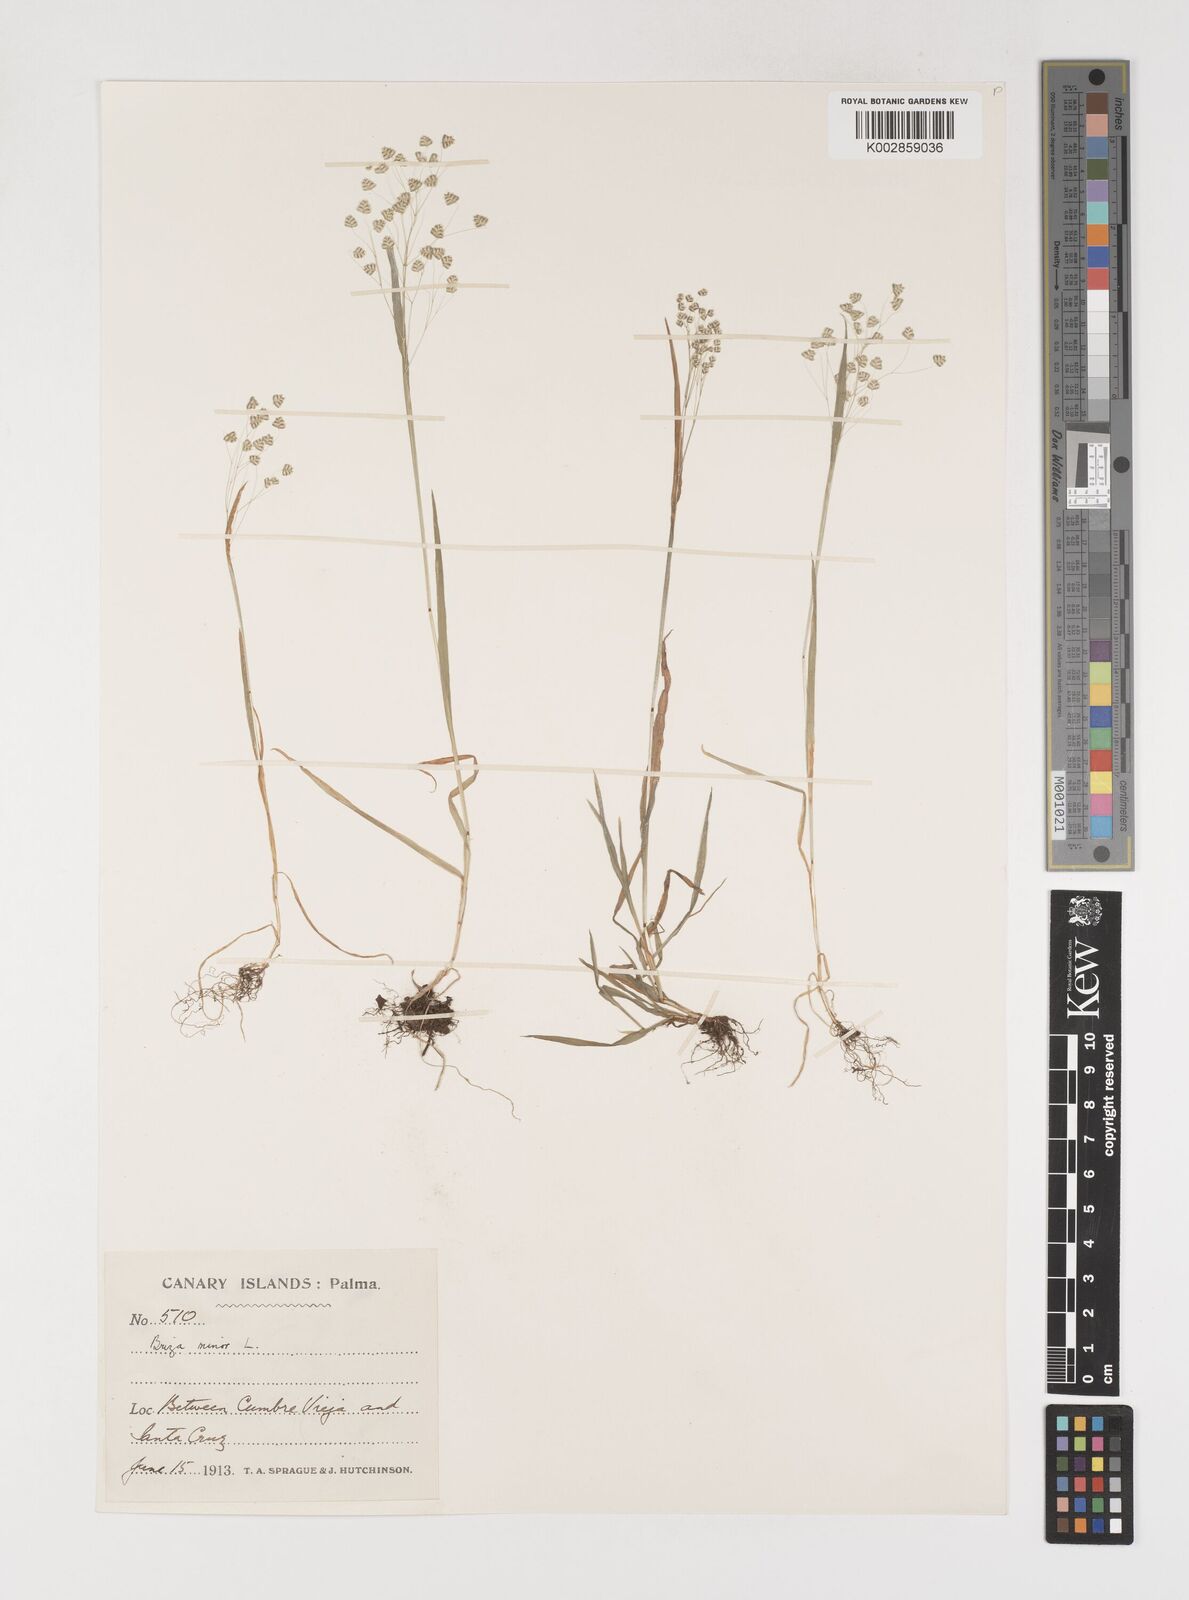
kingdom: Plantae
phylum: Tracheophyta
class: Liliopsida
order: Poales
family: Poaceae
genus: Briza
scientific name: Briza minor
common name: Lesser quaking-grass
